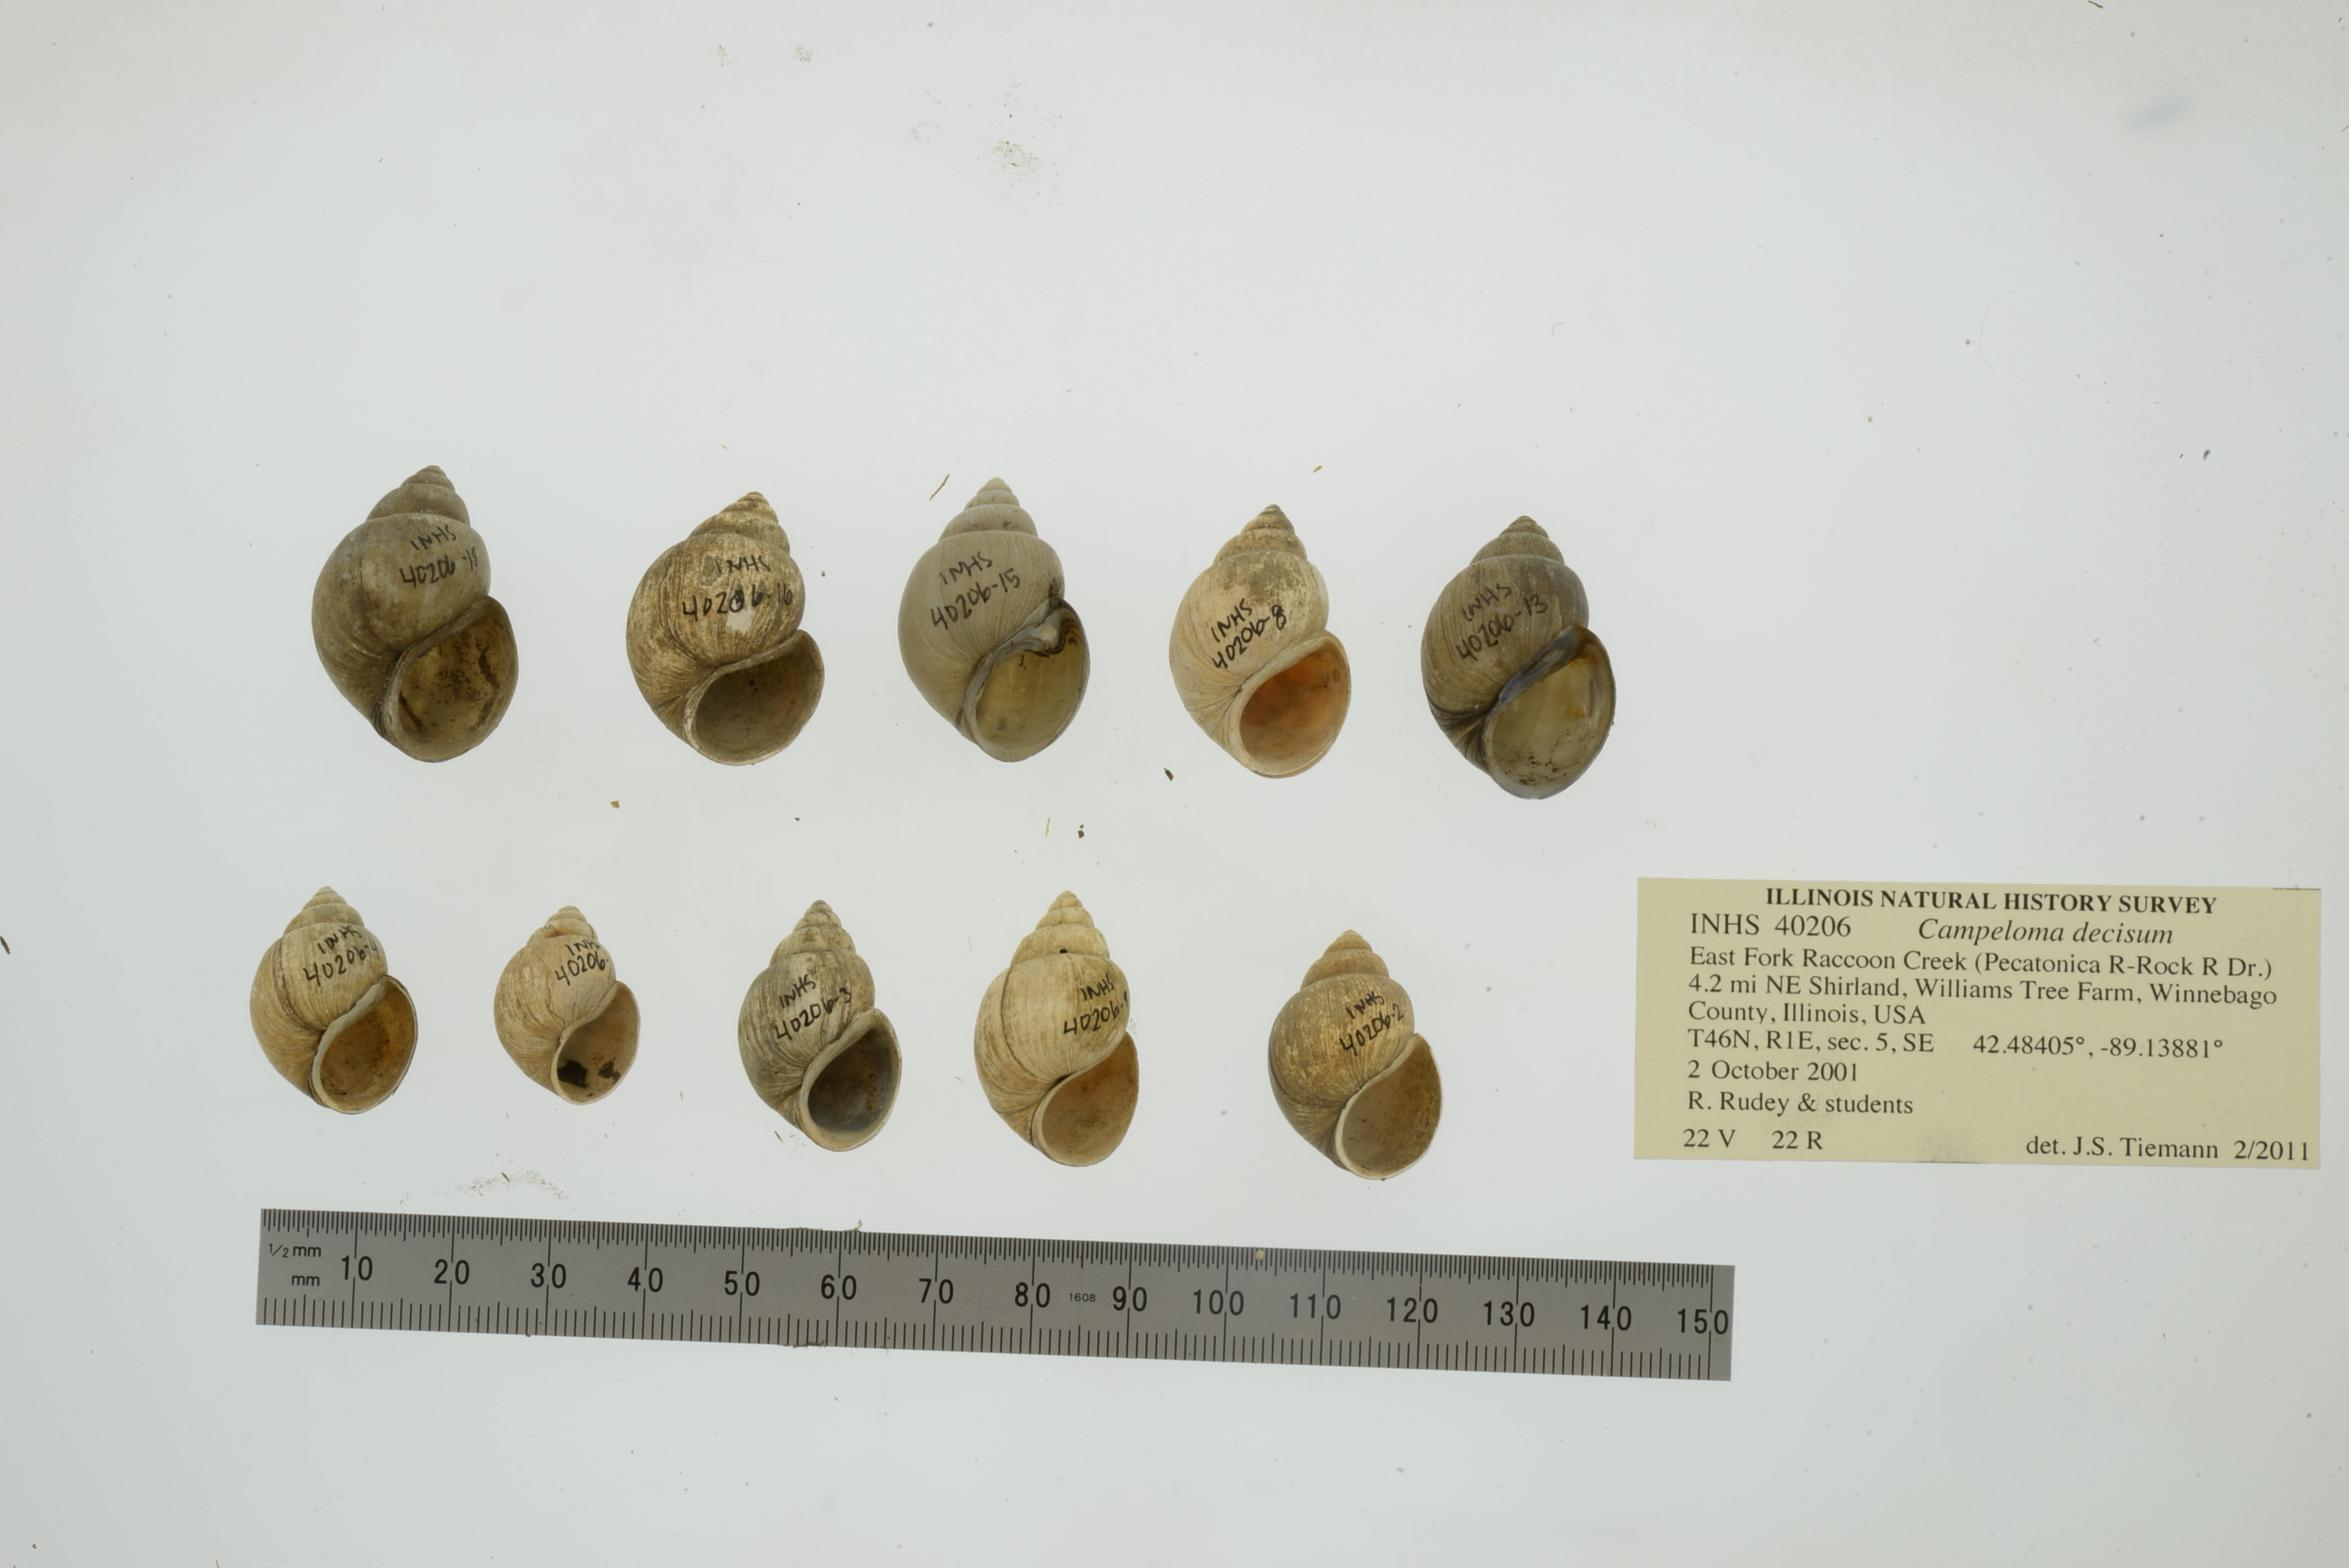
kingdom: Animalia
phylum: Mollusca
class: Gastropoda
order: Architaenioglossa
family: Viviparidae
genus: Campeloma
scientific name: Campeloma decisum
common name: Pointed campeloma
